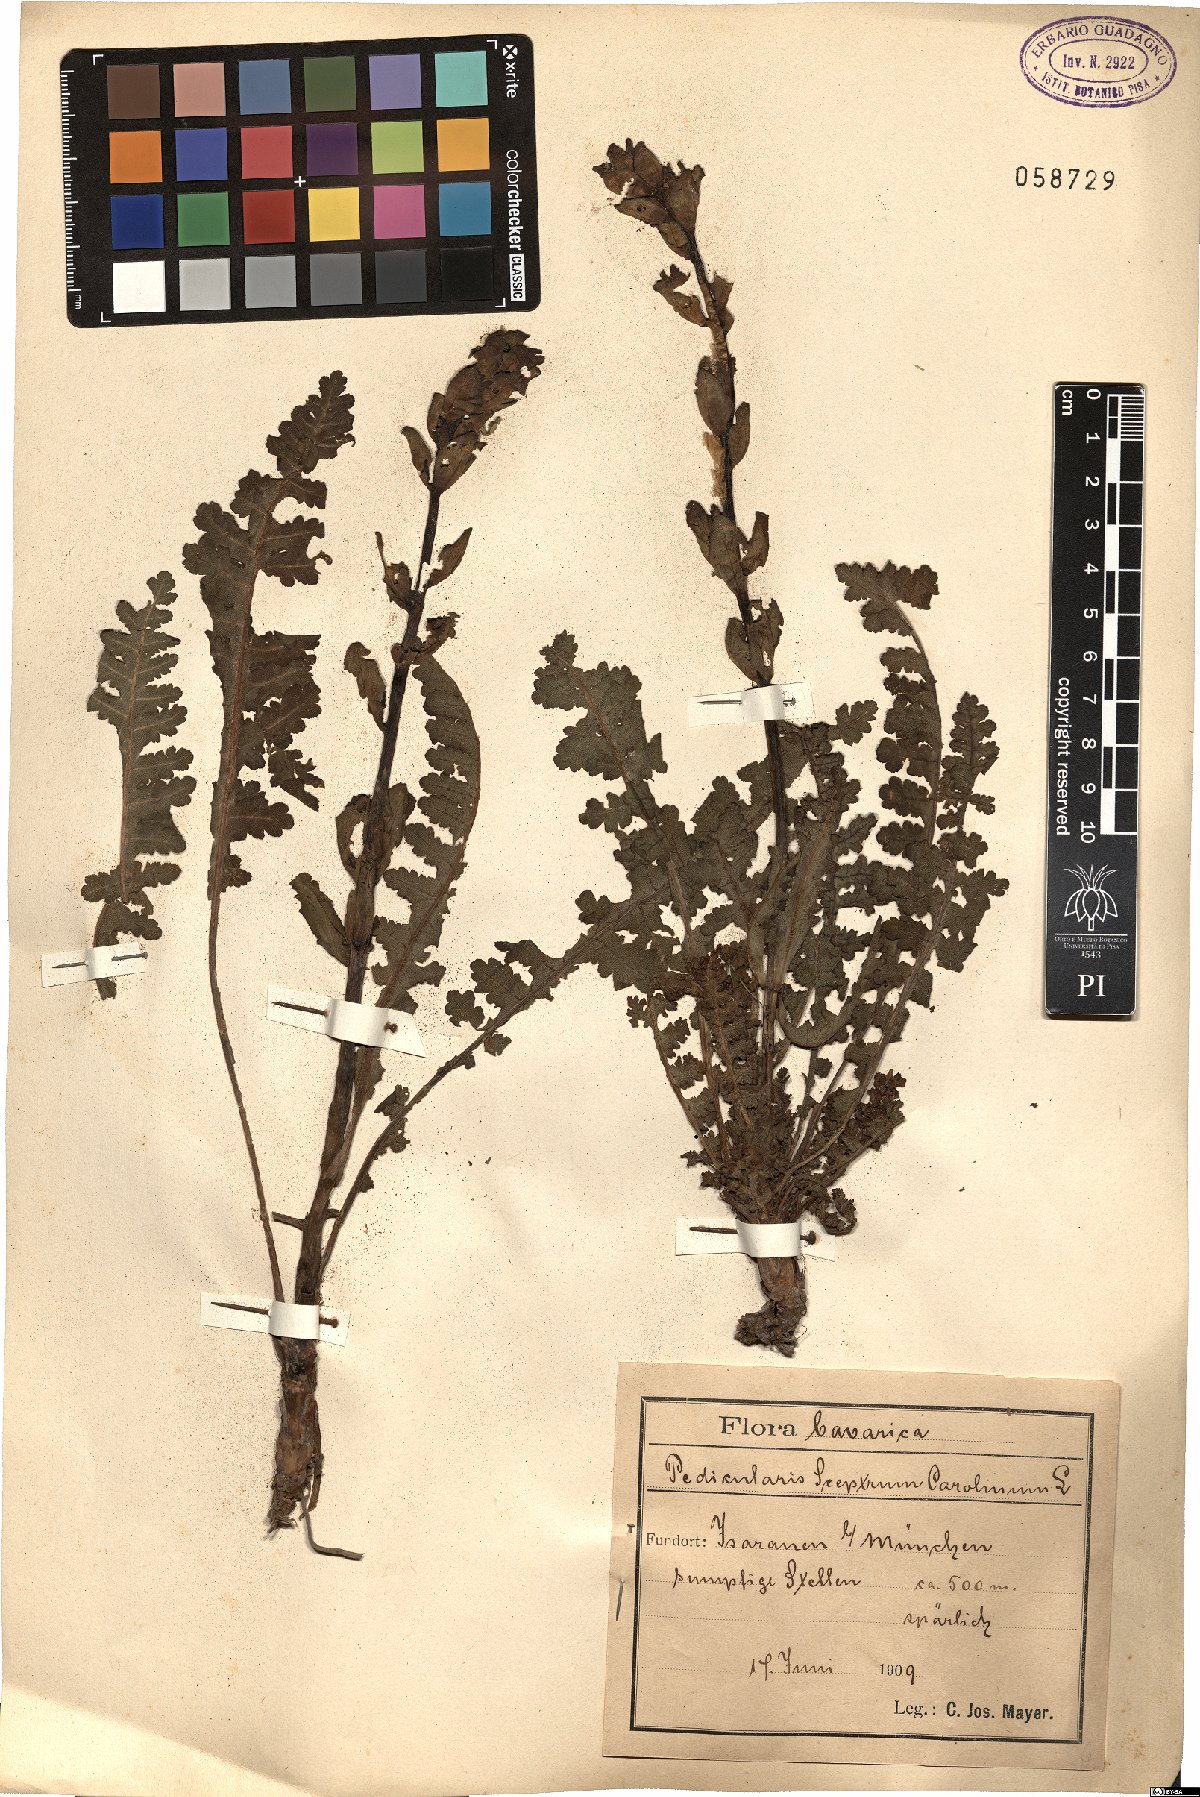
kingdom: Plantae
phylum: Tracheophyta
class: Magnoliopsida
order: Lamiales
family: Orobanchaceae
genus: Pedicularis
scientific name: Pedicularis sceptrum-carolinum
